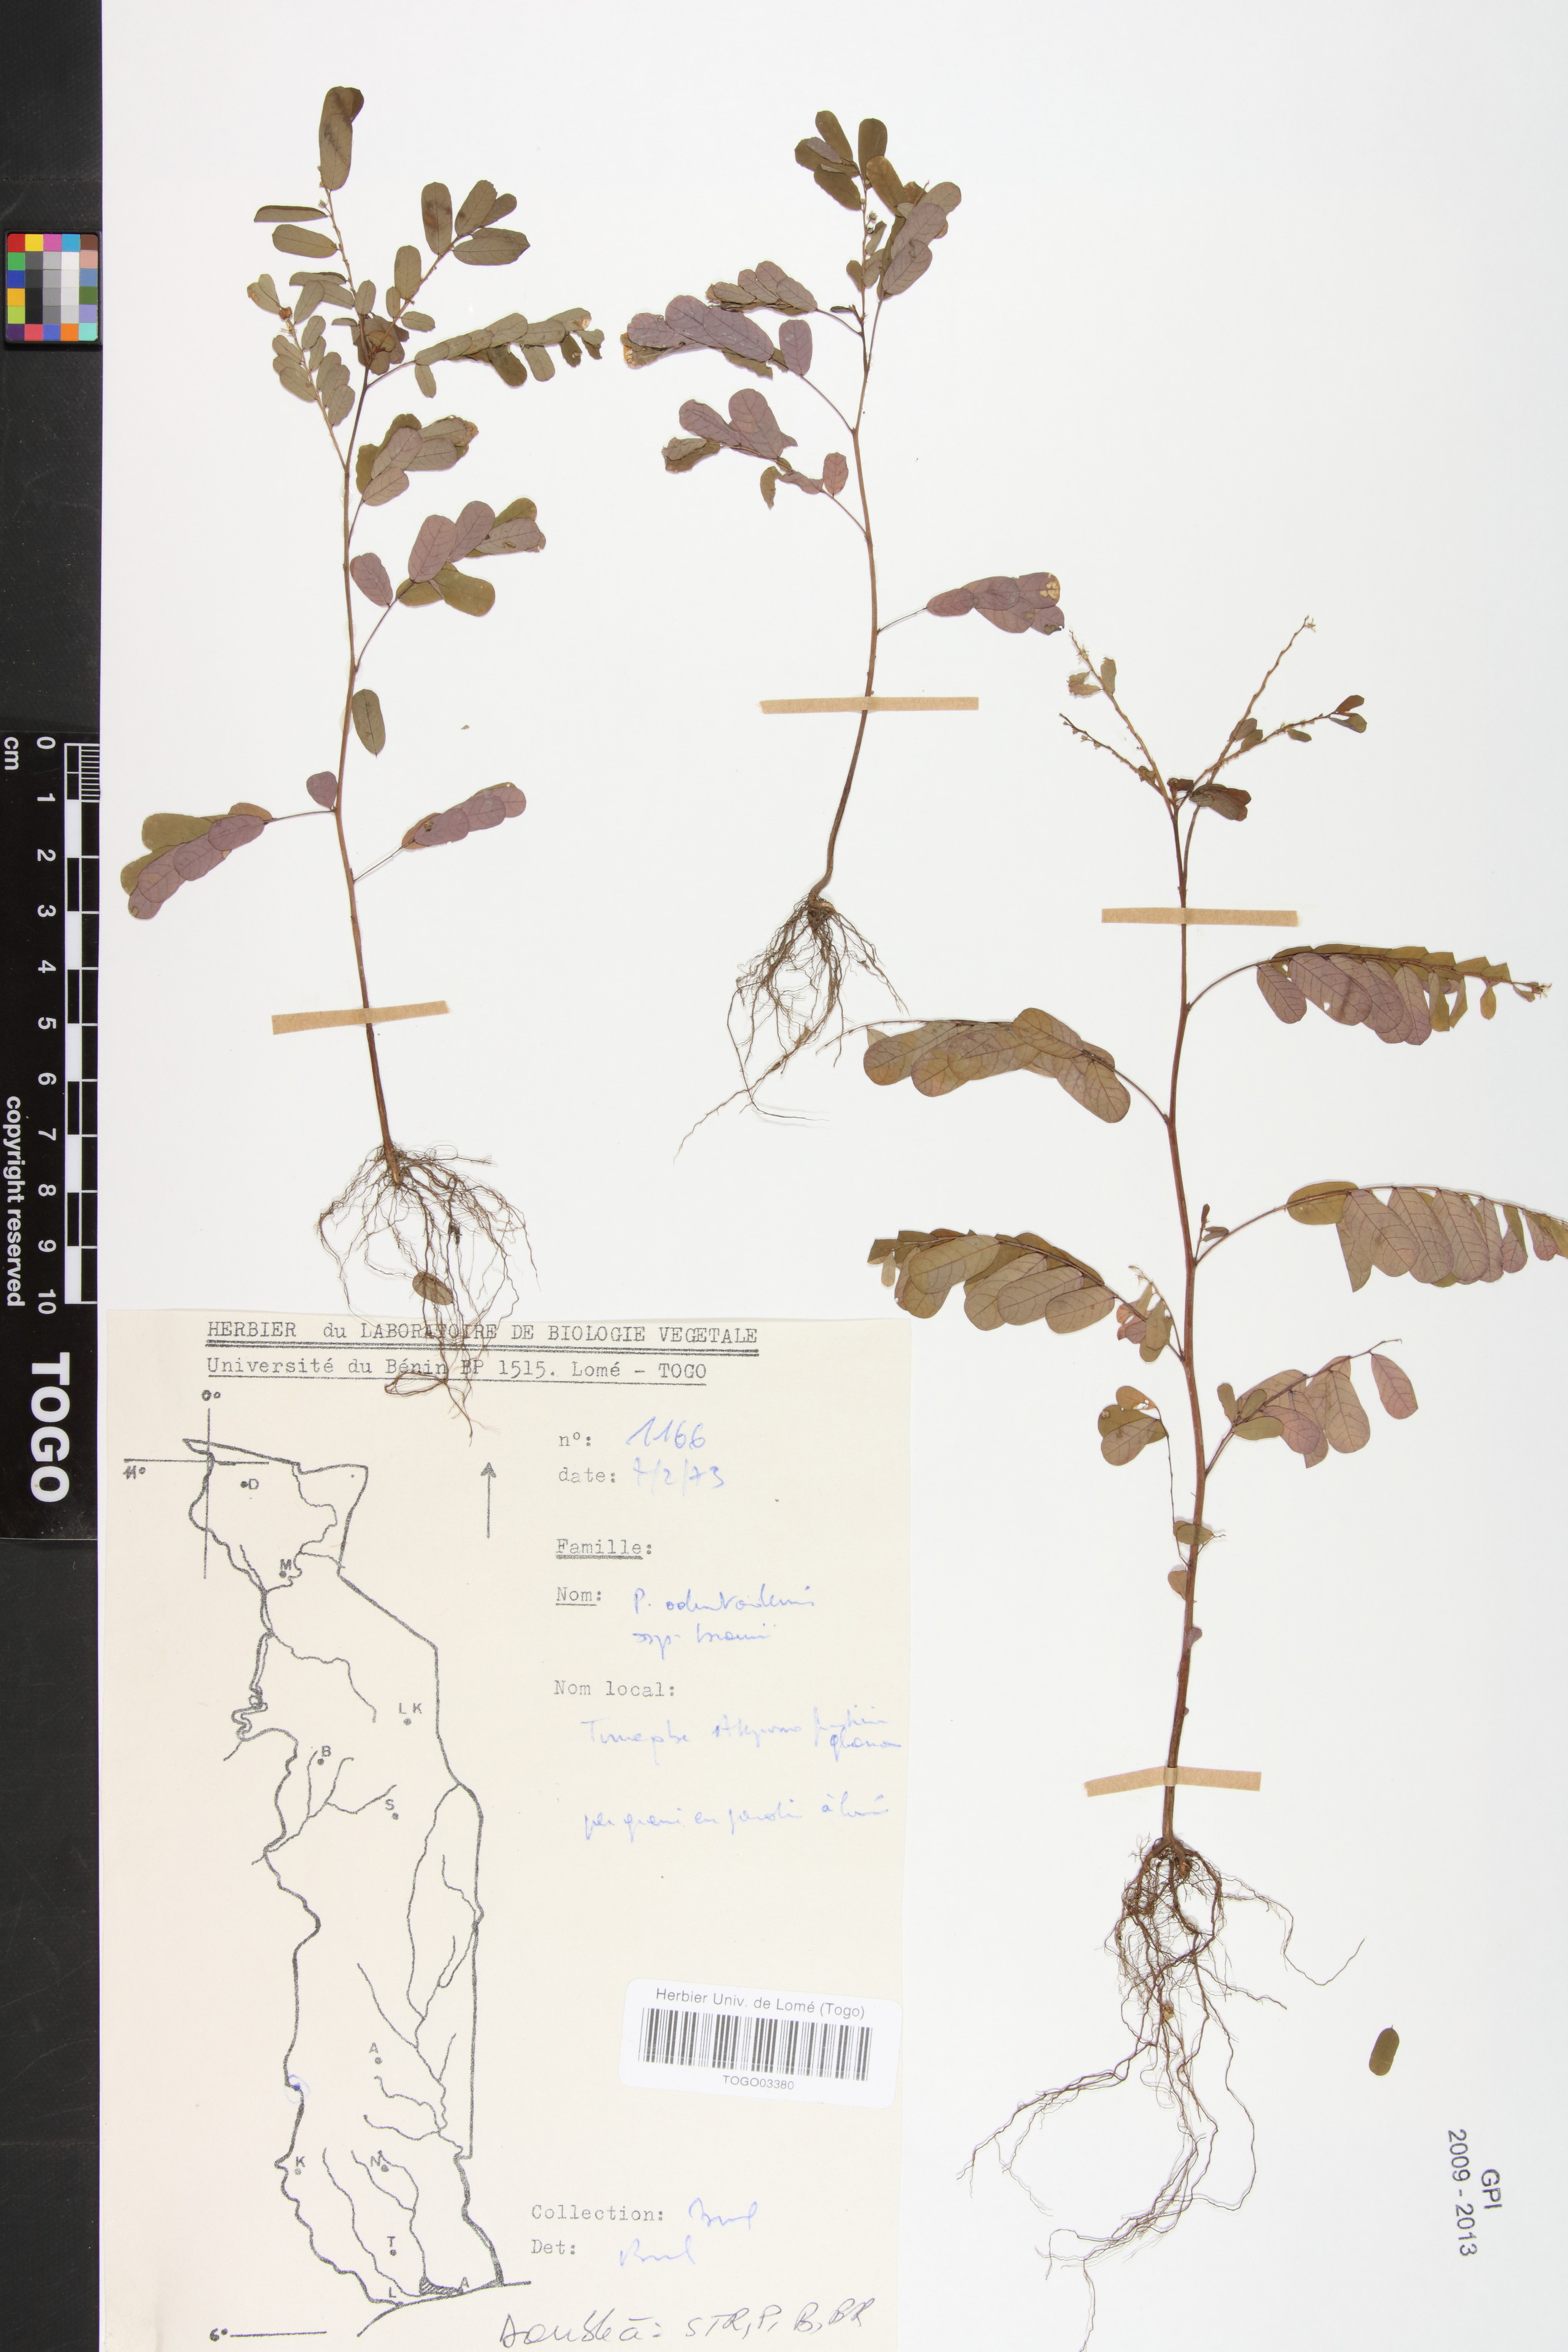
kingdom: Plantae
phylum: Tracheophyta
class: Magnoliopsida
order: Malpighiales
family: Phyllanthaceae
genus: Phyllanthus
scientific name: Phyllanthus odontadenius
